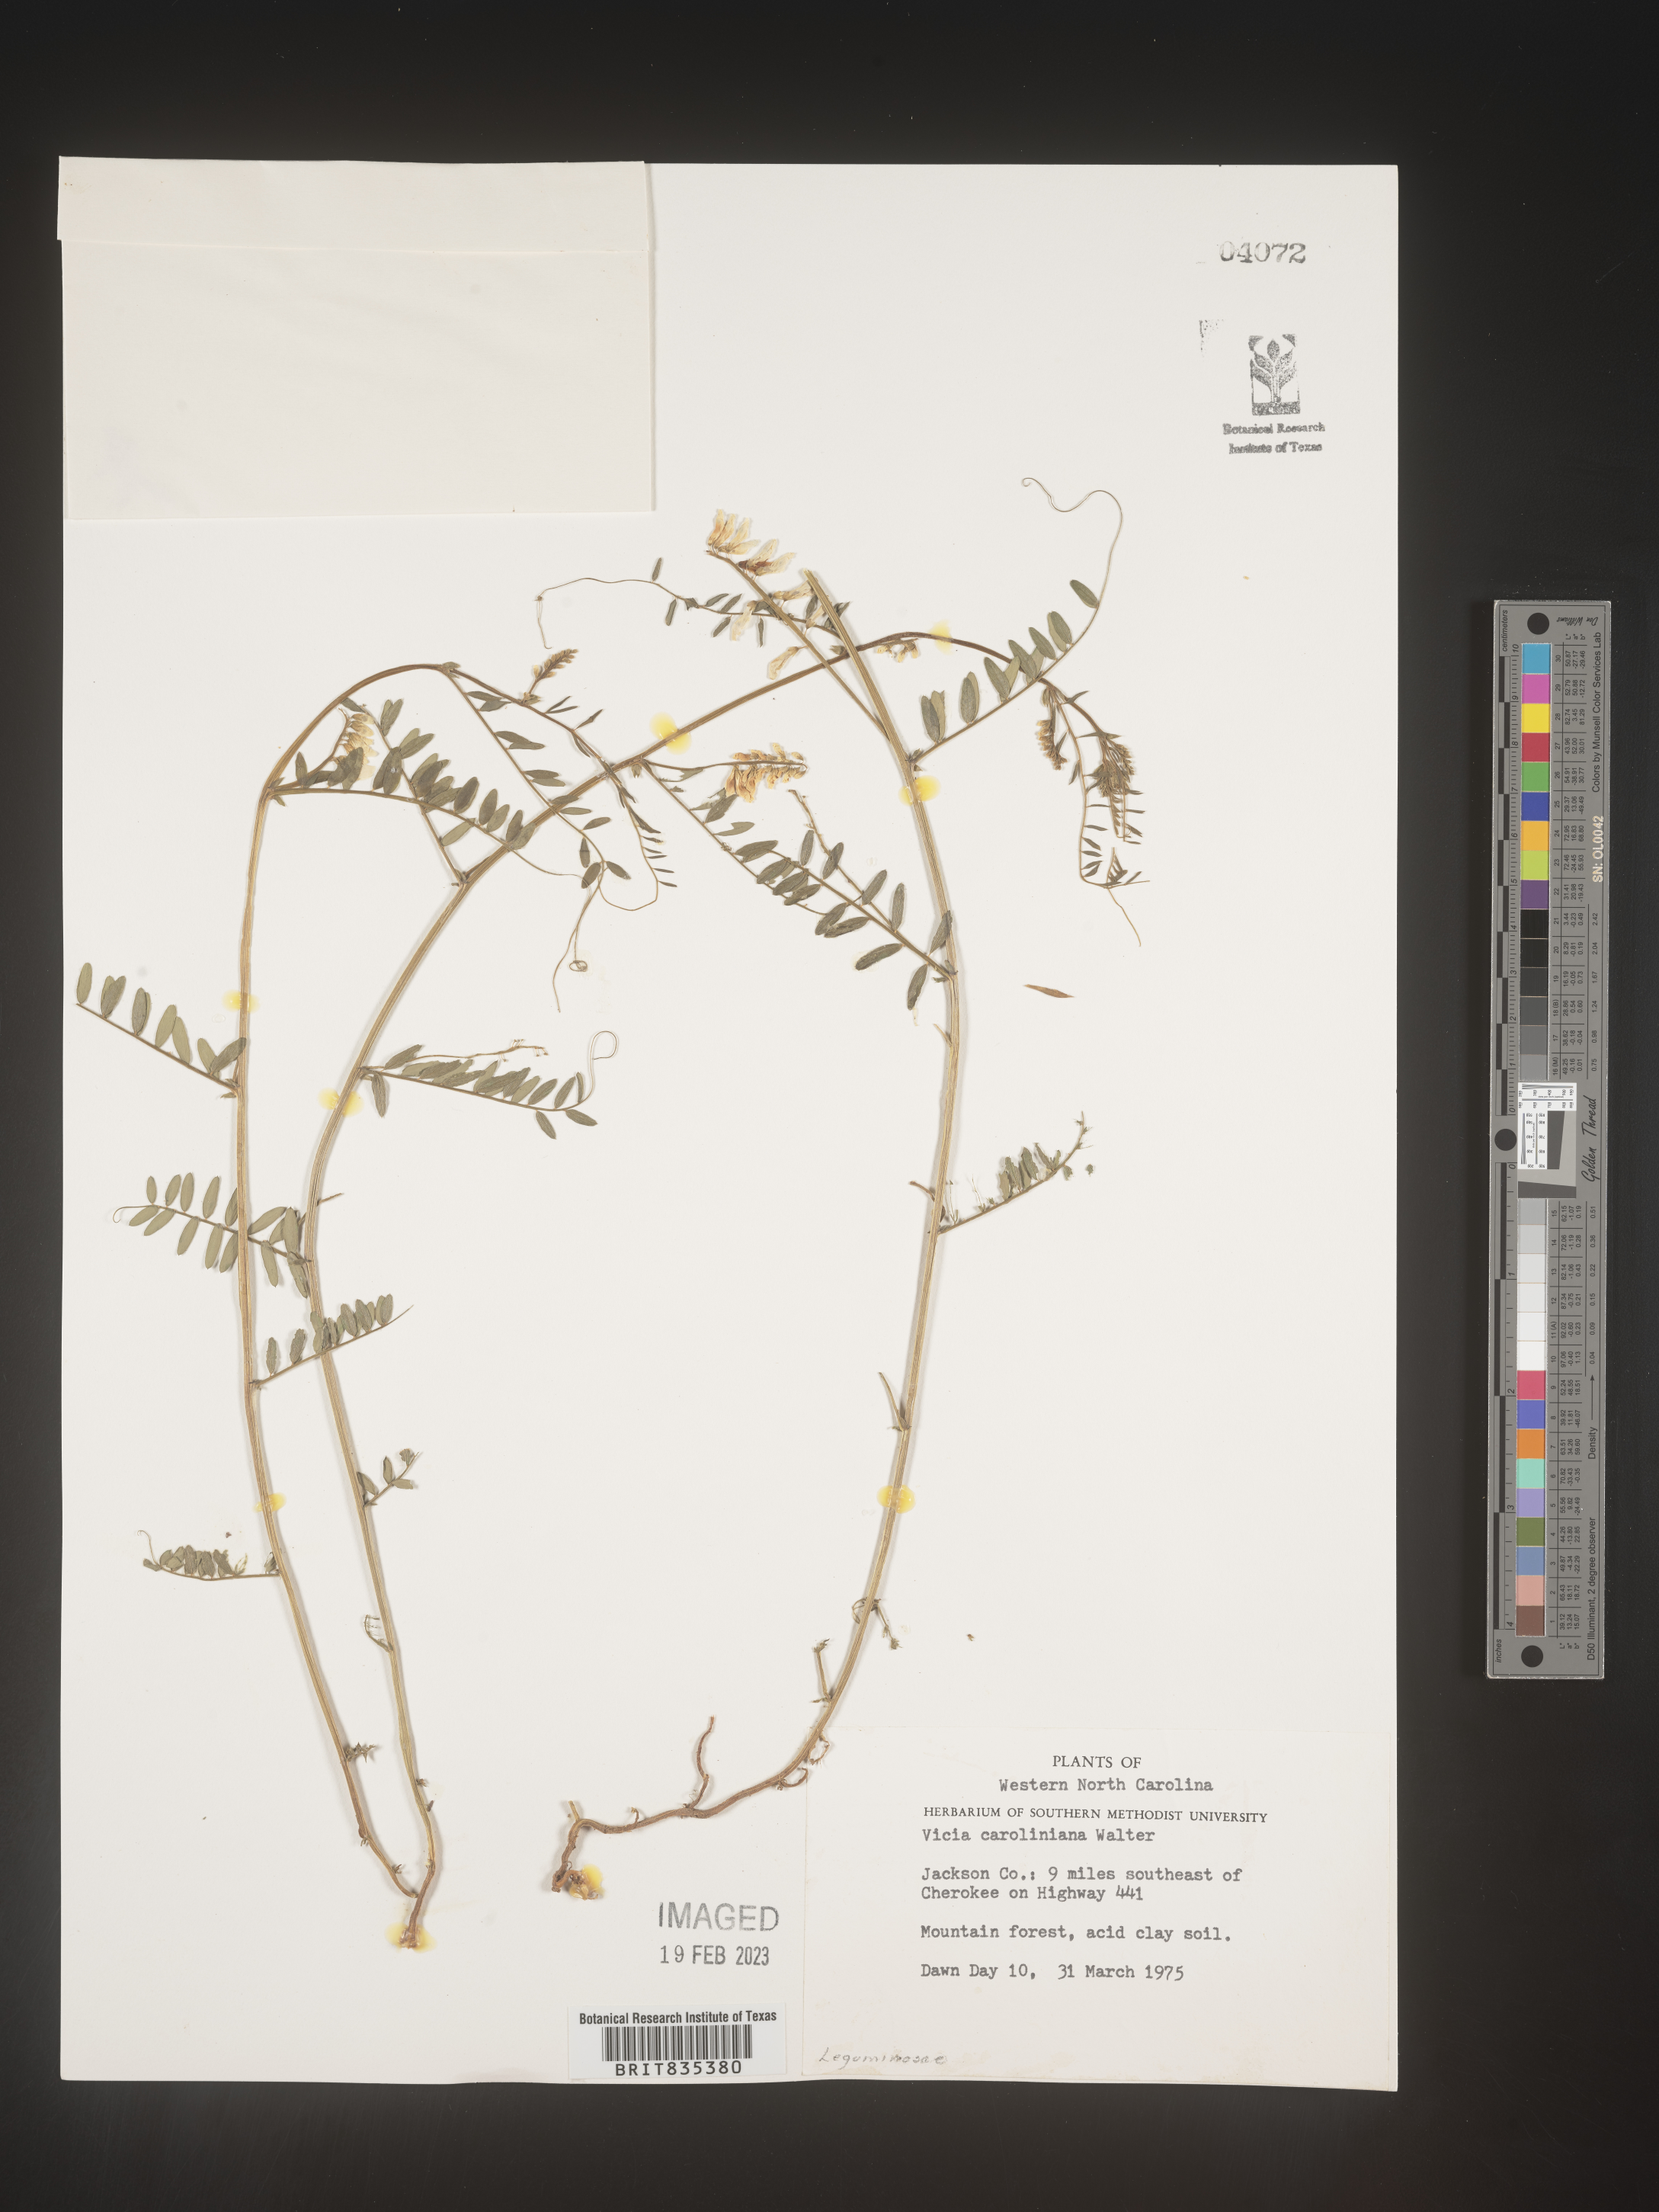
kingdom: Plantae
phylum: Tracheophyta
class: Magnoliopsida
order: Fabales
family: Fabaceae
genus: Vicia
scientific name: Vicia caroliniana
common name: Carolina vetch
